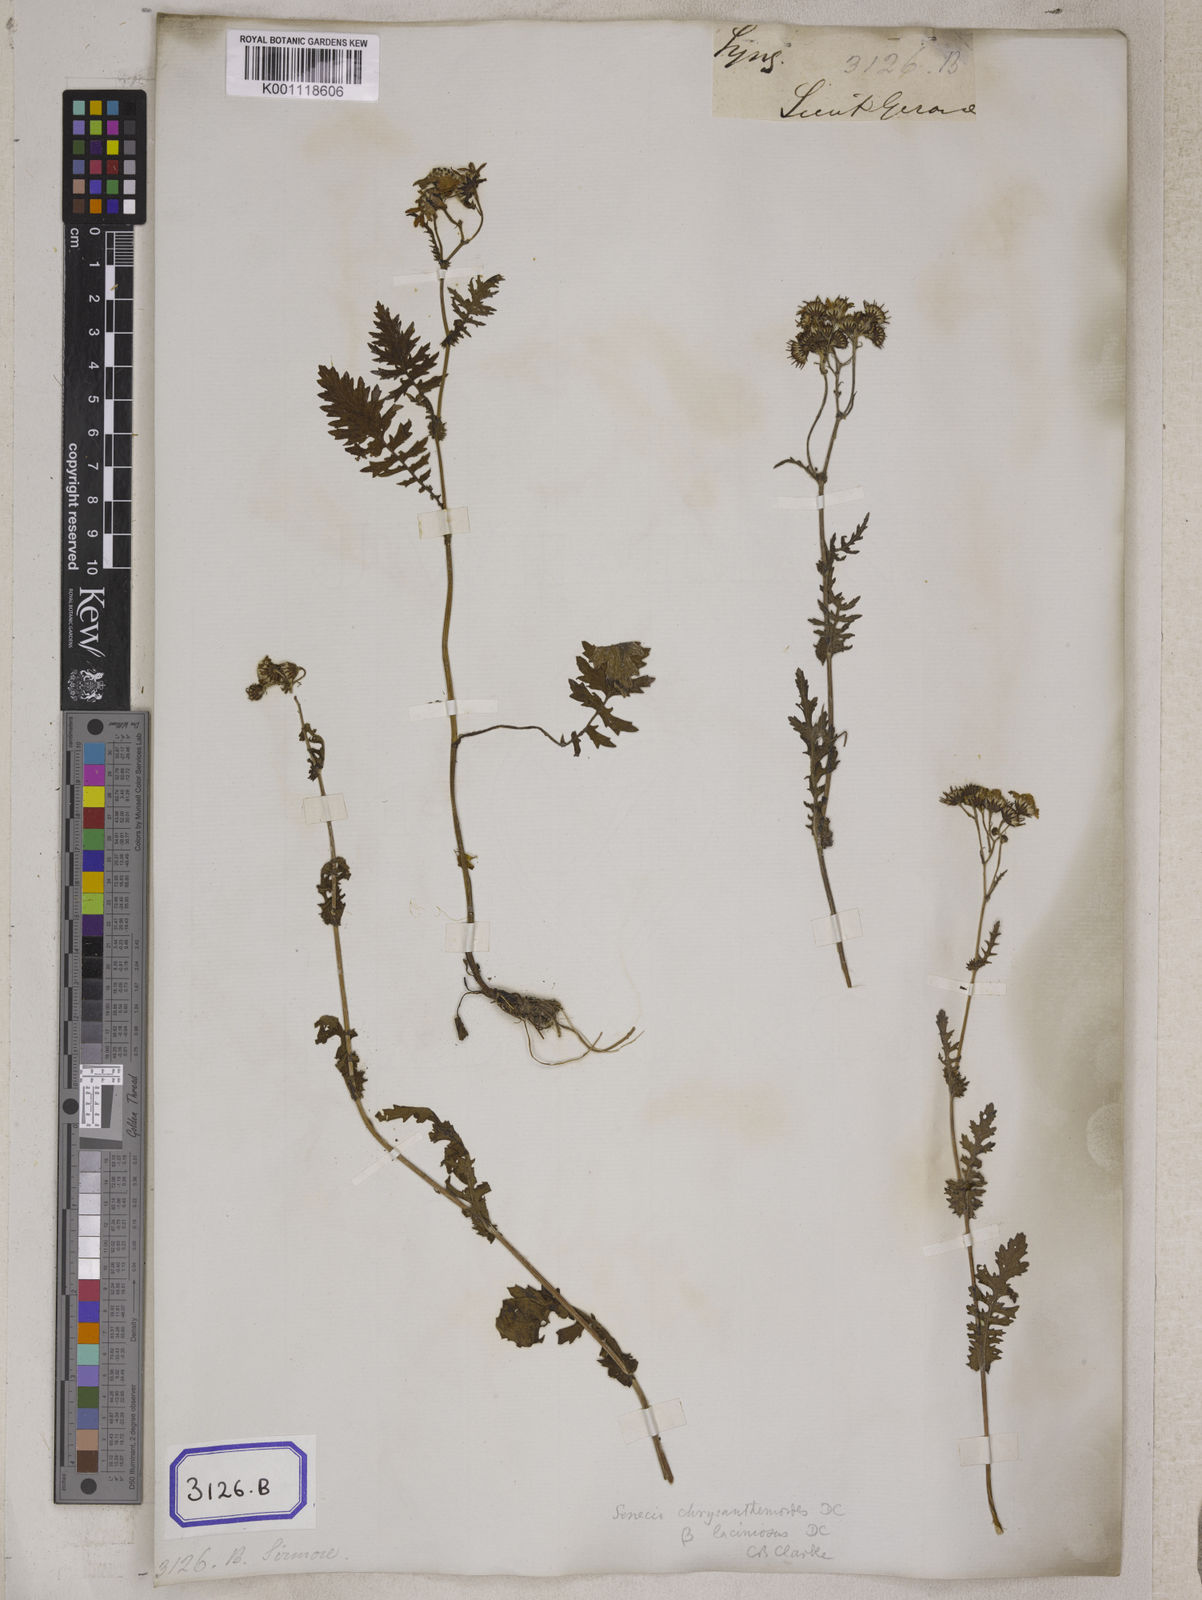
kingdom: Plantae
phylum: Tracheophyta
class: Magnoliopsida
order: Asterales
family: Asteraceae
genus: Senecio
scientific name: Senecio
